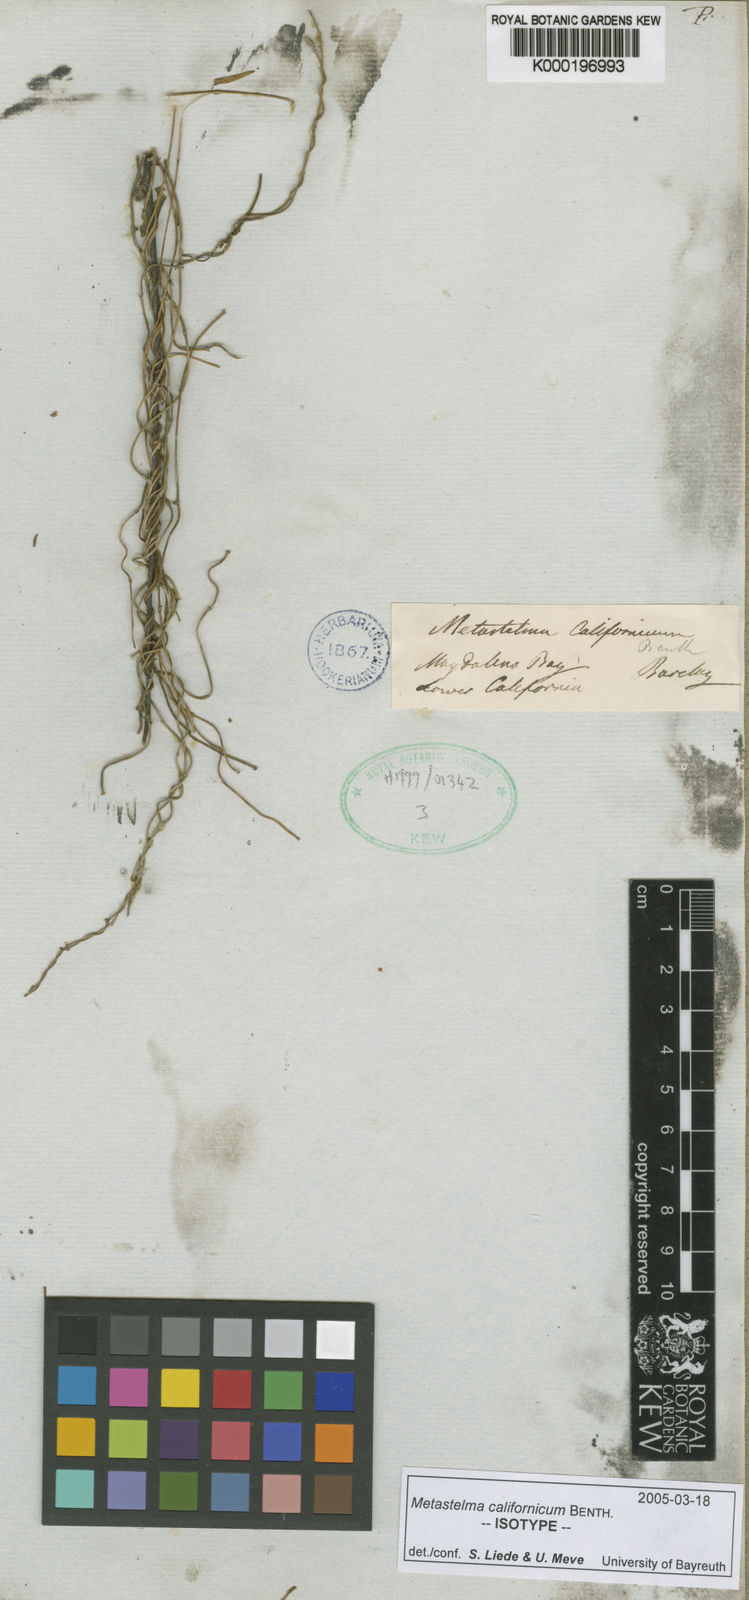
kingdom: Plantae
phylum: Tracheophyta
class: Magnoliopsida
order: Gentianales
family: Apocynaceae
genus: Metastelma
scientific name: Metastelma californicum
